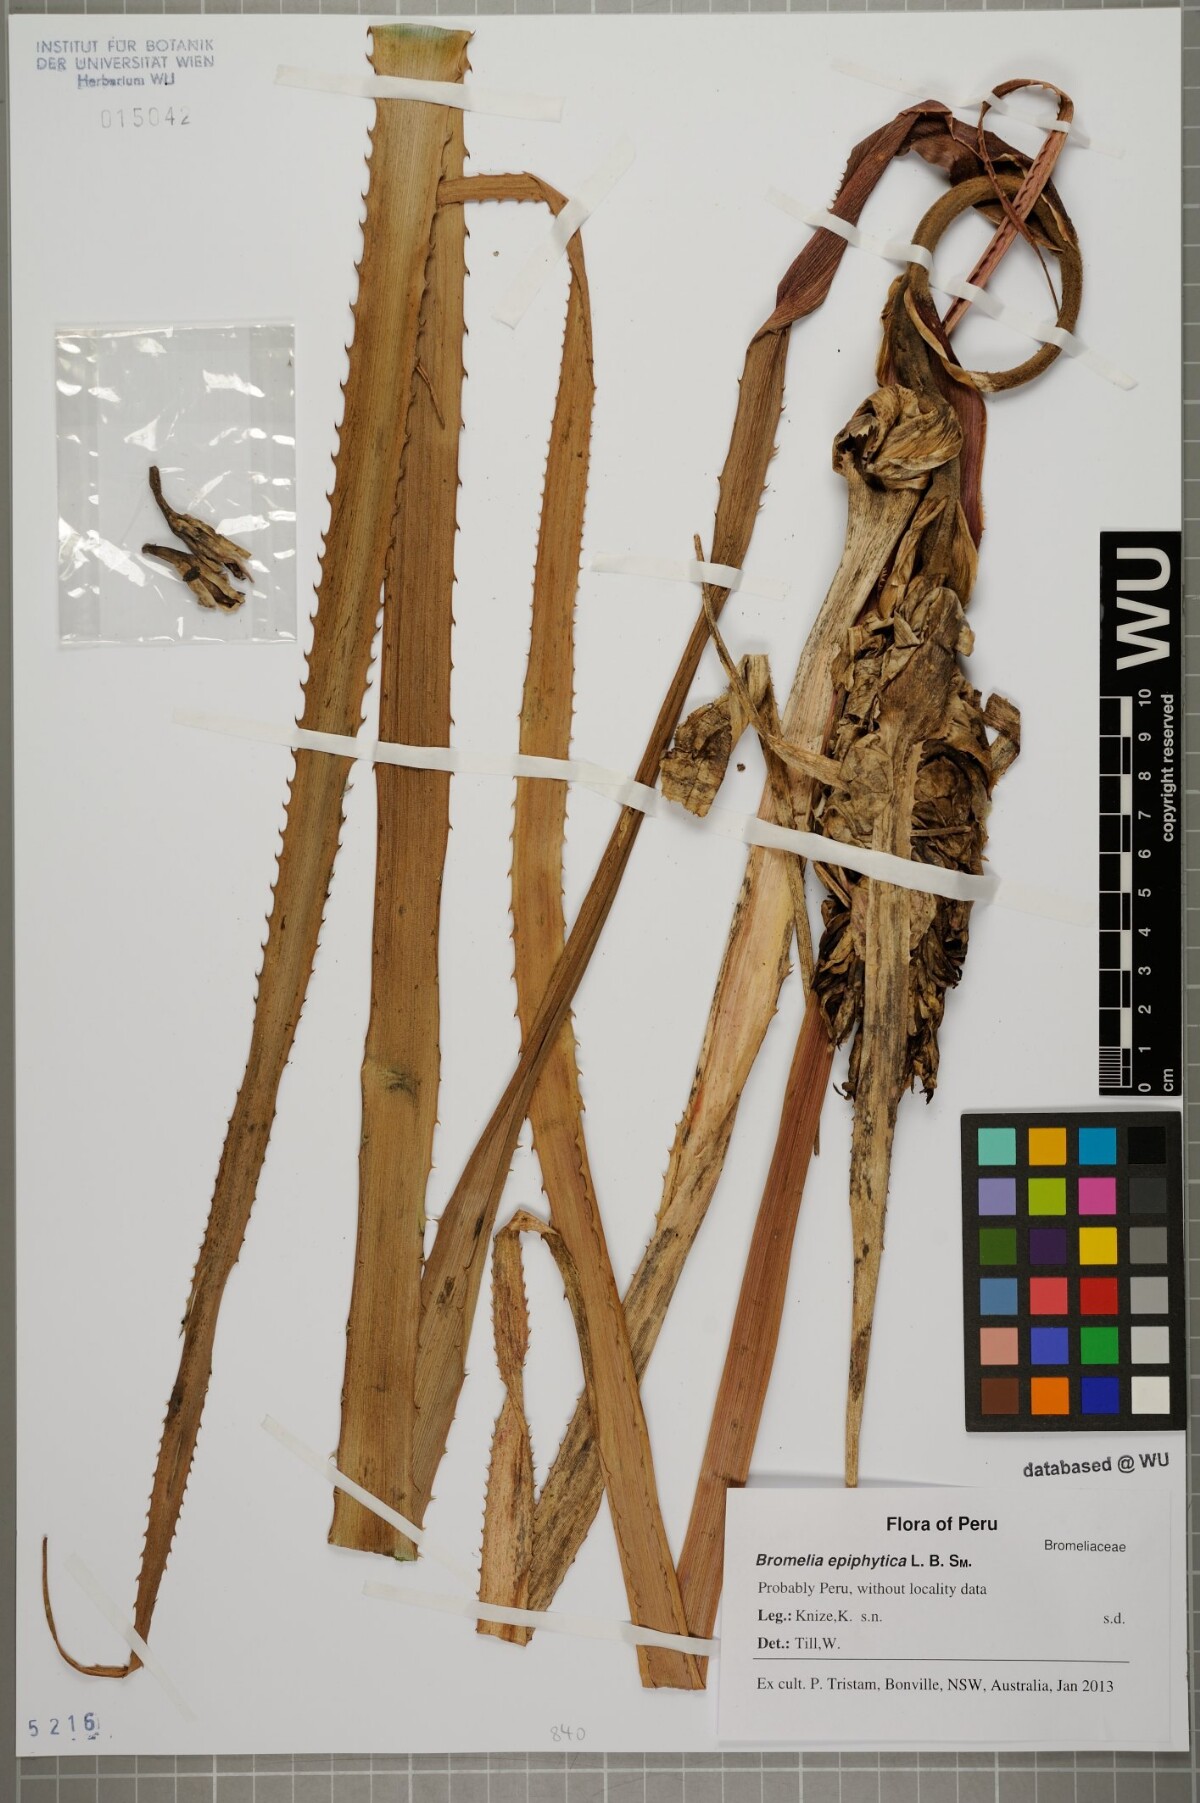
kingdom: Plantae
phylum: Tracheophyta
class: Liliopsida
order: Poales
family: Bromeliaceae
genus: Bromelia
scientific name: Bromelia epiphytica
